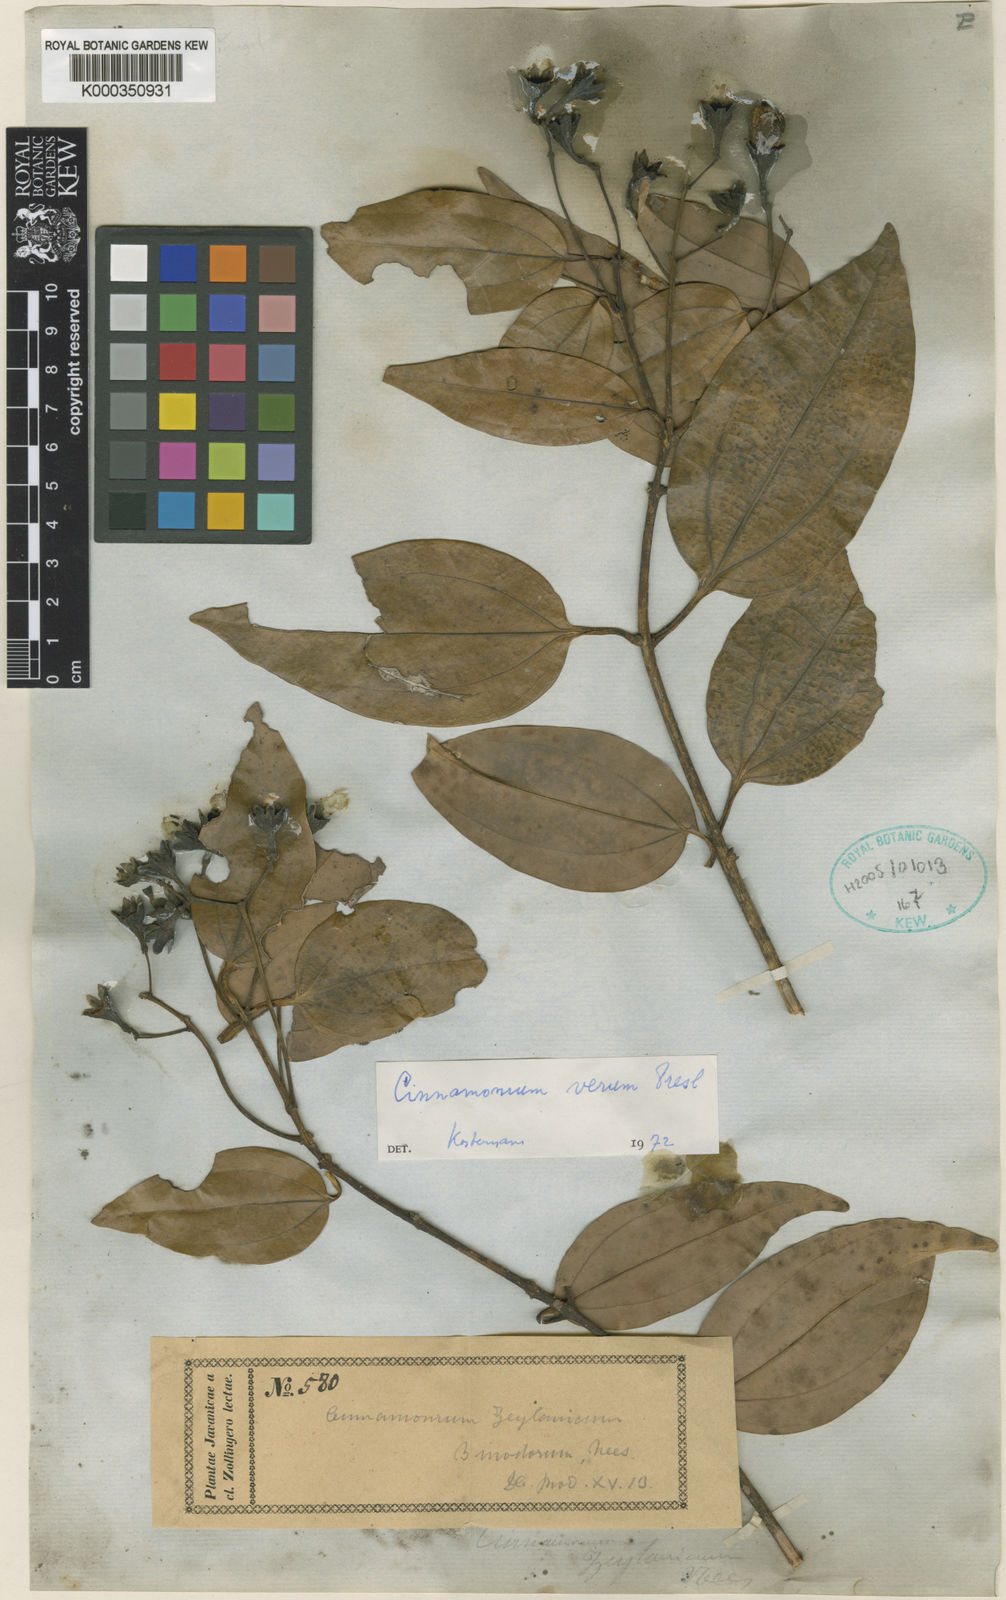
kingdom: Plantae
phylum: Tracheophyta
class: Magnoliopsida
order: Laurales
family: Lauraceae
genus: Cinnamomum
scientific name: Cinnamomum verum
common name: Cinnamon
